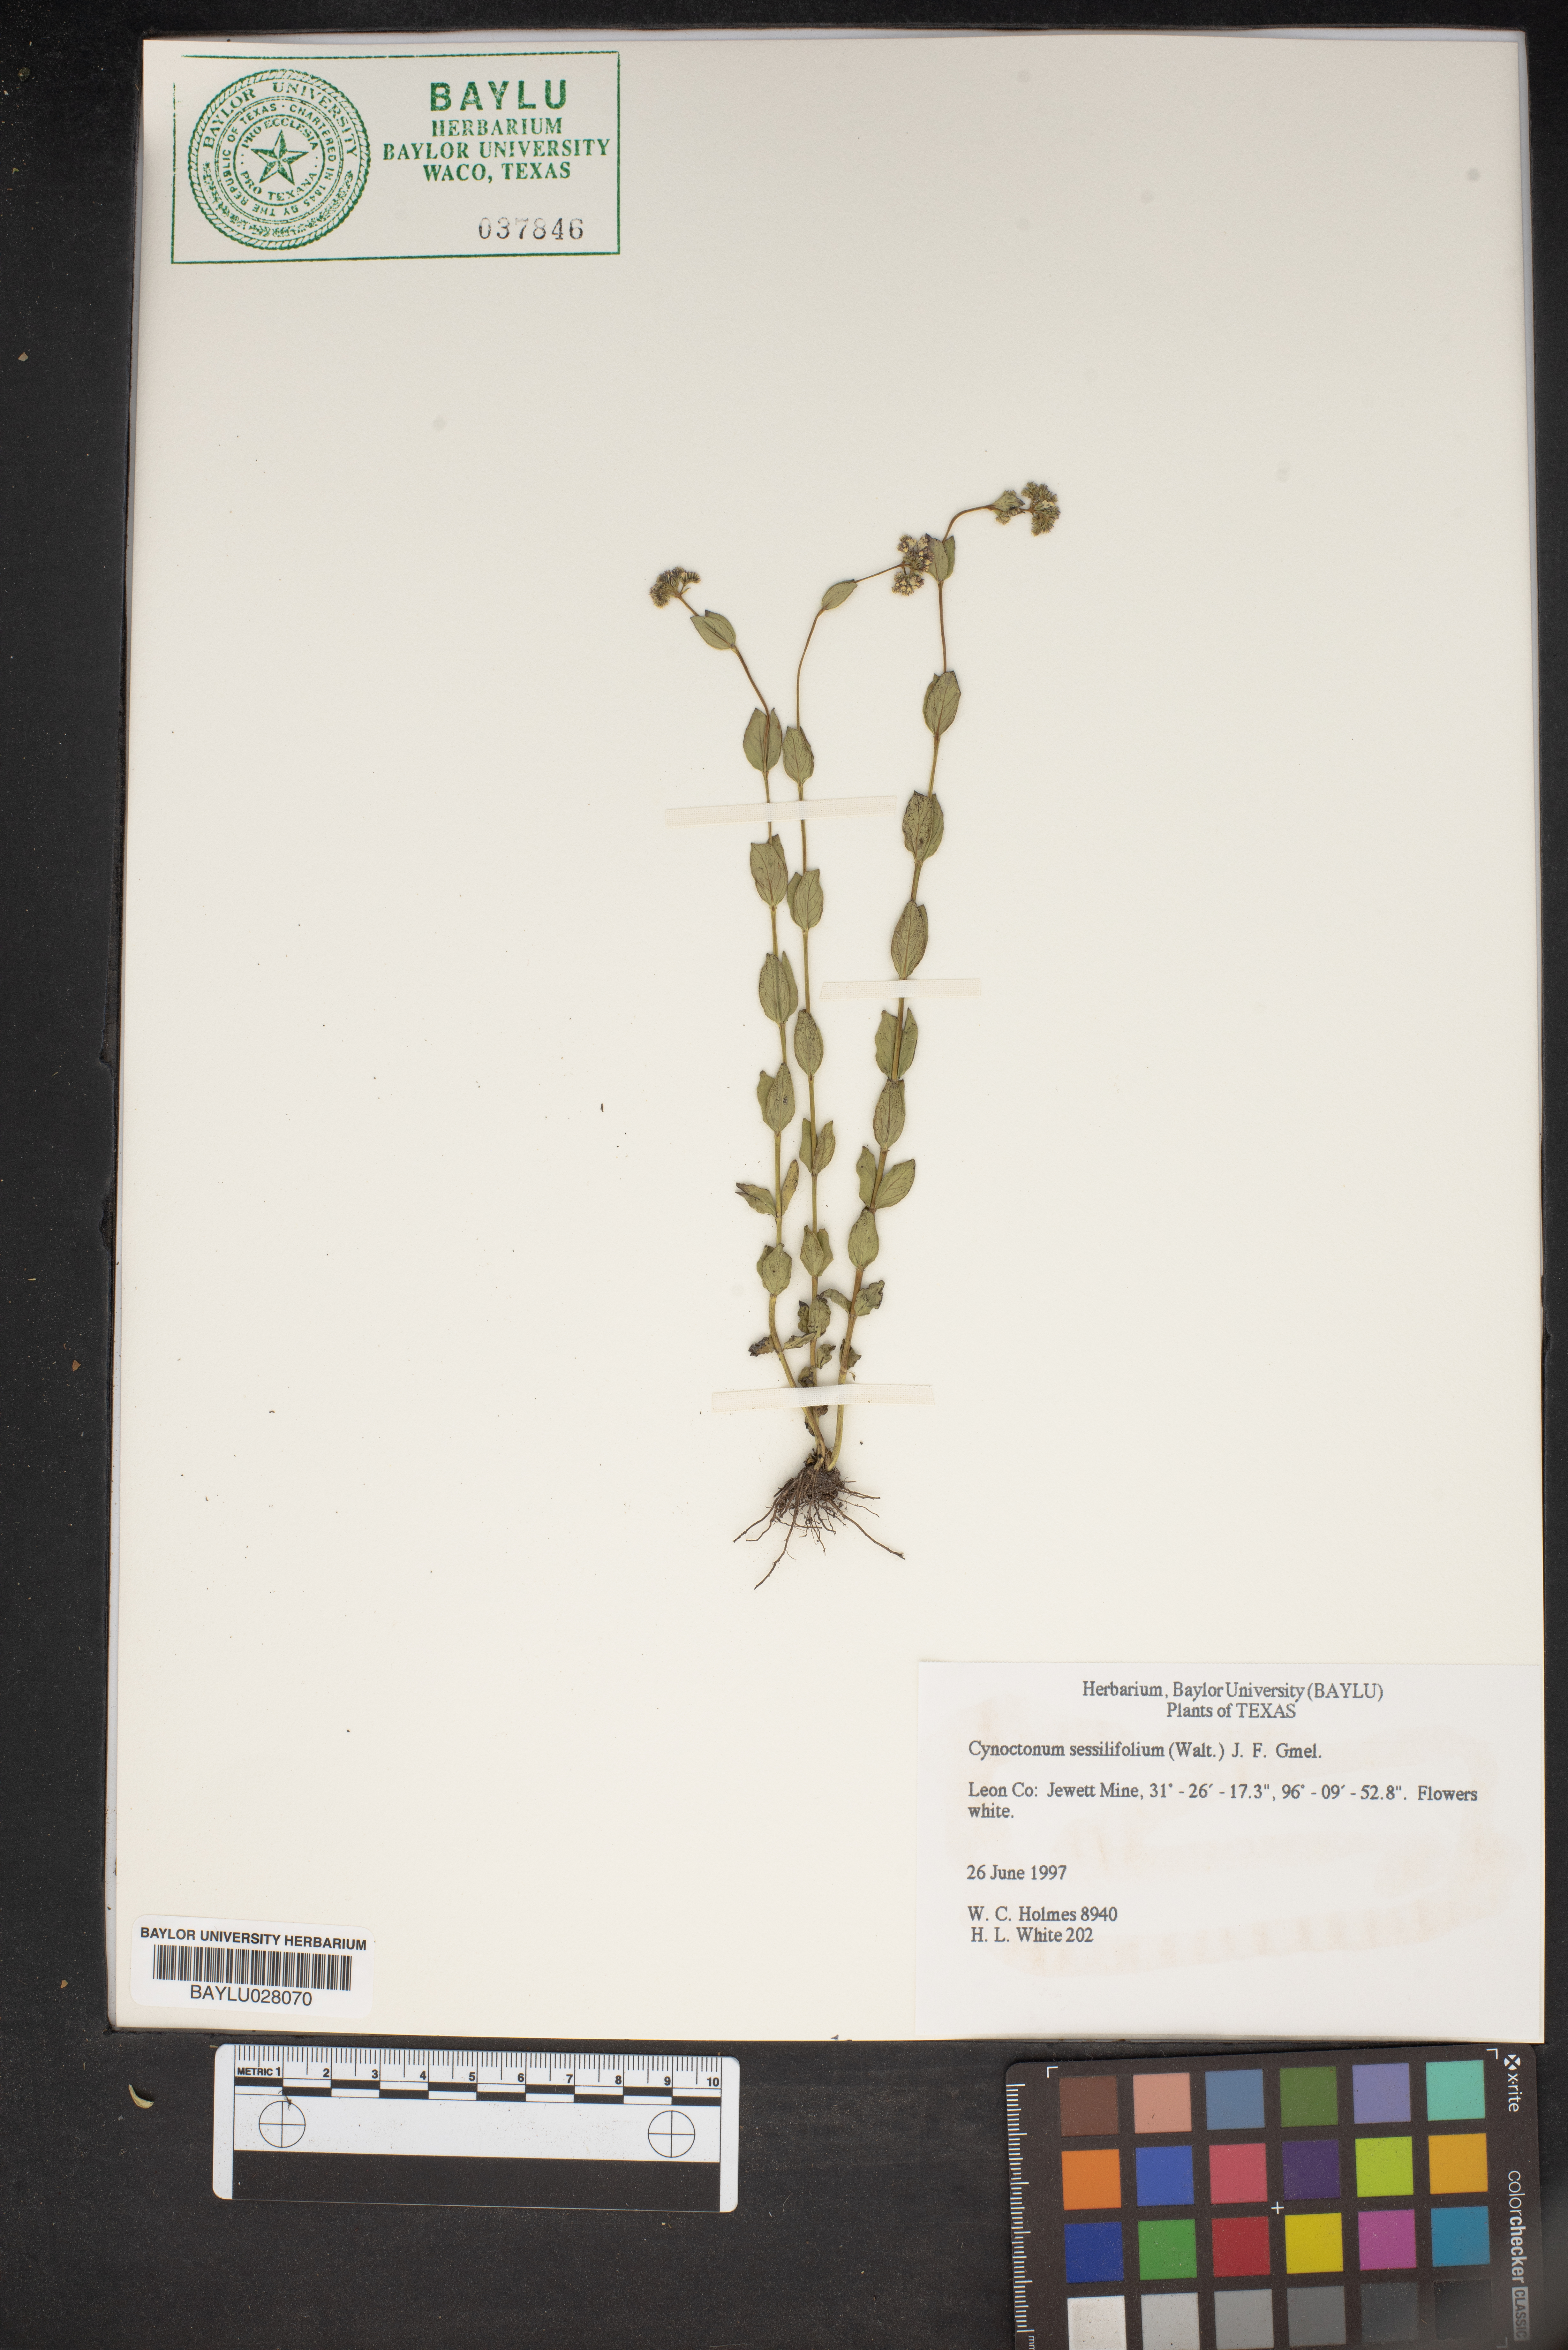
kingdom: Plantae
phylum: Tracheophyta
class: Magnoliopsida
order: Gentianales
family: Loganiaceae
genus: Mitreola
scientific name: Mitreola sessilifolia
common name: Swamp hornpod
